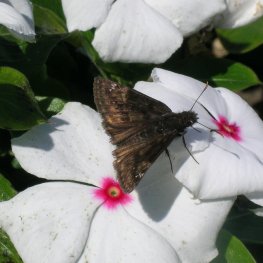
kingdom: Animalia
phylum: Arthropoda
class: Insecta
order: Lepidoptera
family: Hesperiidae
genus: Gesta
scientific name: Gesta
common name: Wild Indigo Duskywing
